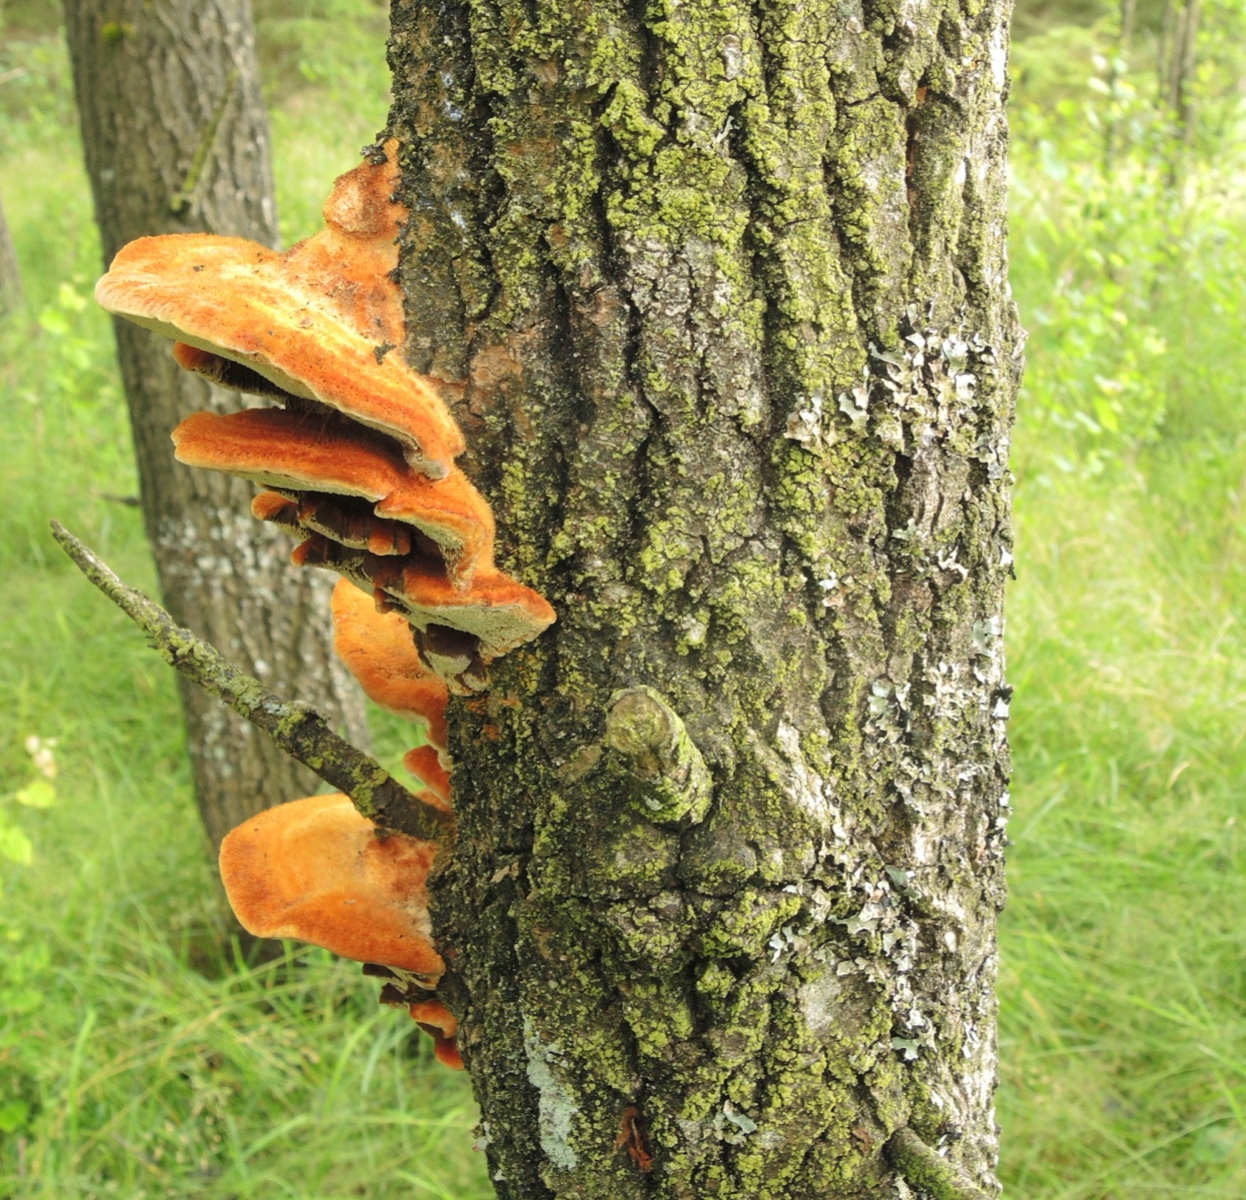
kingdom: Fungi
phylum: Basidiomycota
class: Agaricomycetes
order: Hymenochaetales
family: Hymenochaetaceae
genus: Inocutis
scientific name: Inocutis rheades
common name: ræve-spejlporesvamp
